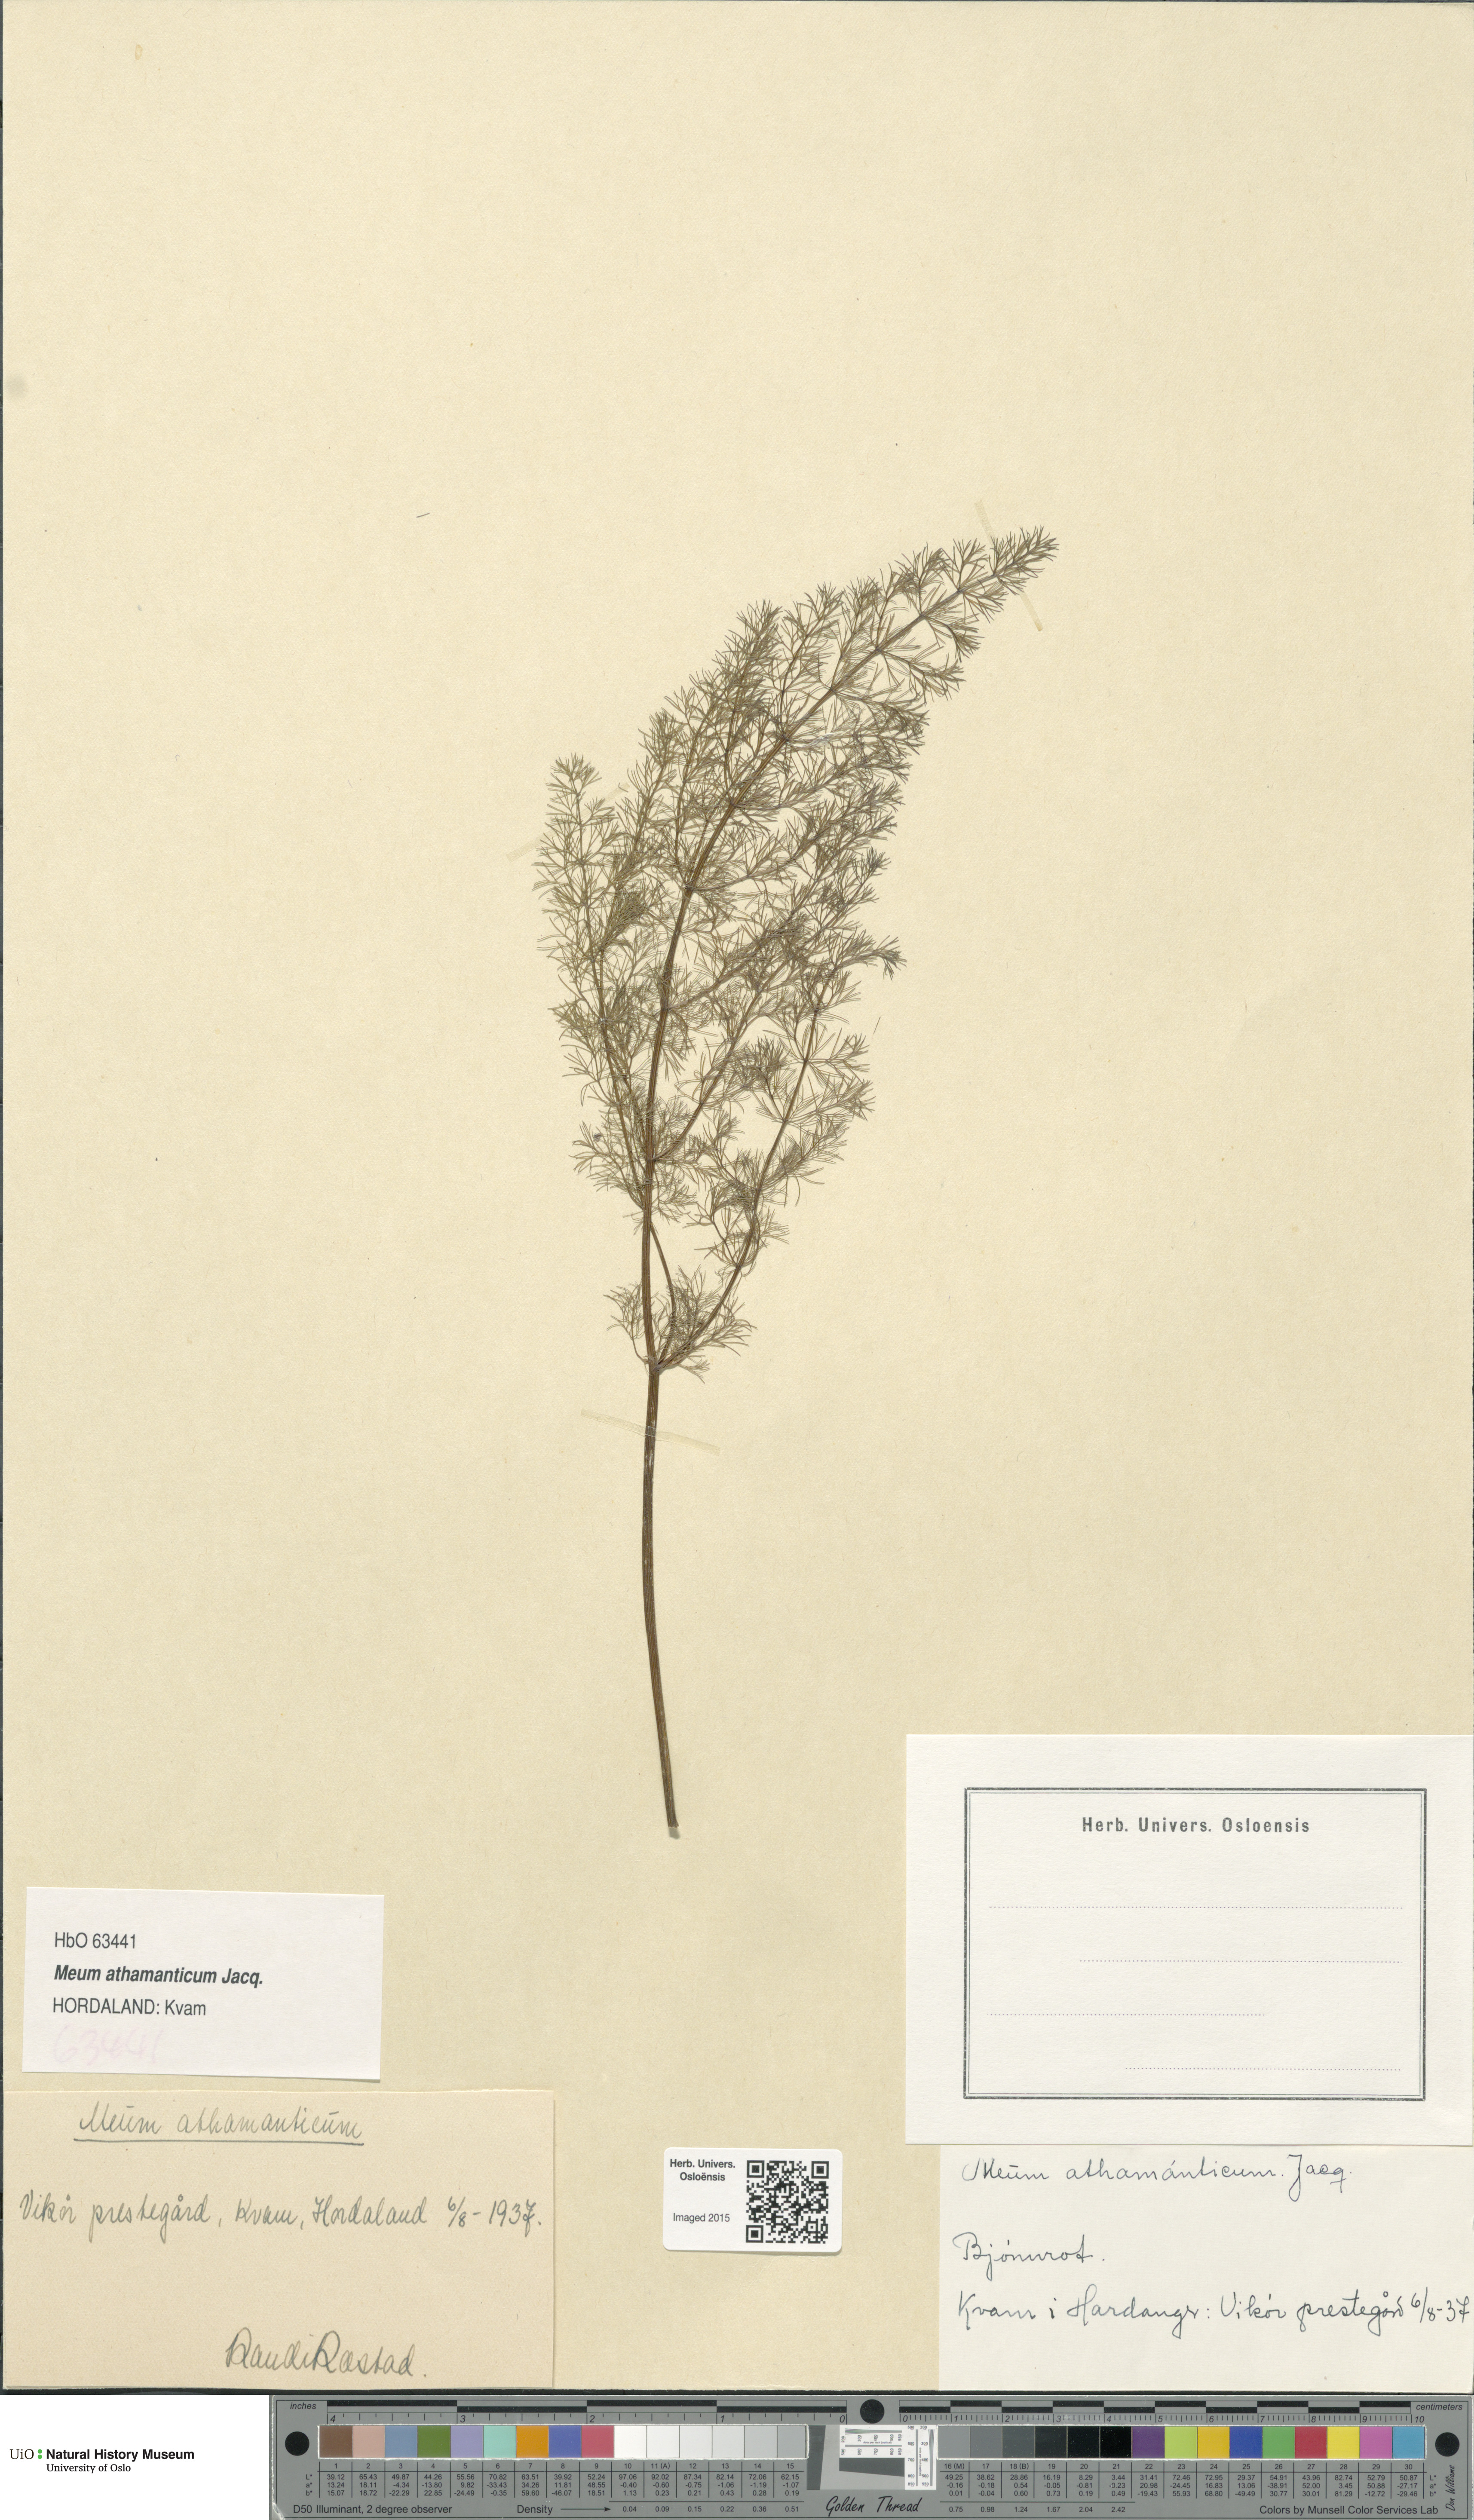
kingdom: Plantae
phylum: Tracheophyta
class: Magnoliopsida
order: Apiales
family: Apiaceae
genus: Meum
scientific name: Meum athamanticum
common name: Spignel
